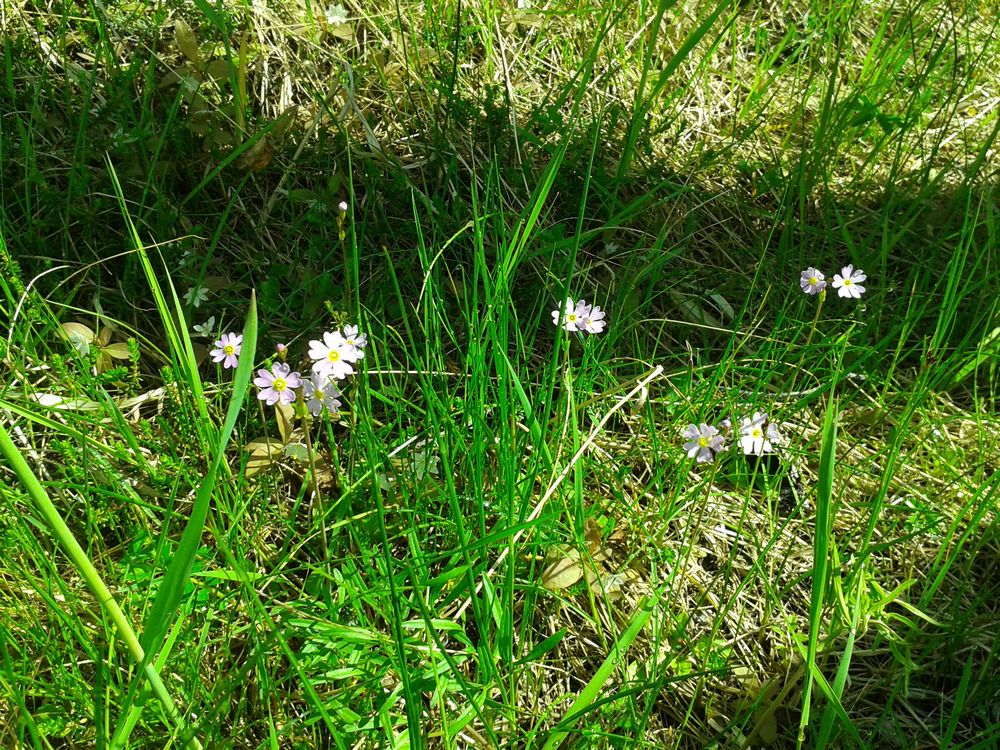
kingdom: Plantae
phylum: Tracheophyta
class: Magnoliopsida
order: Ericales
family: Primulaceae
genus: Primula
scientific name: Primula nutans
